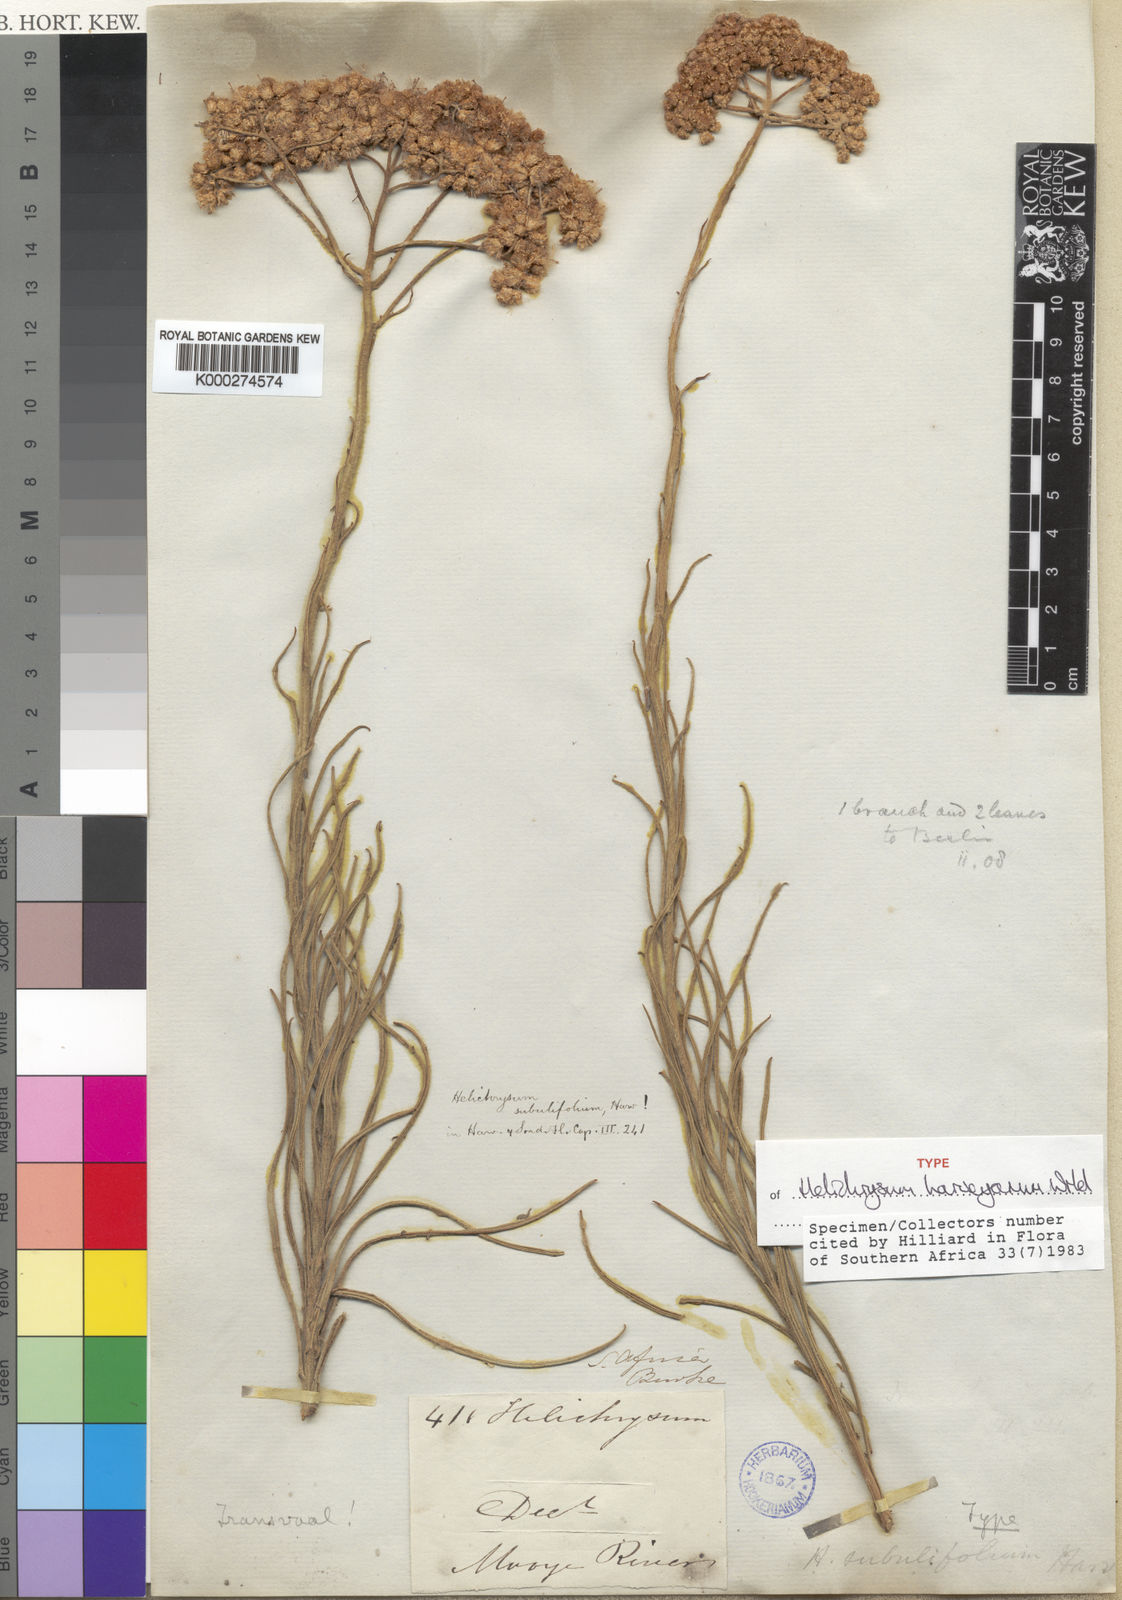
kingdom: Plantae
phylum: Tracheophyta
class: Magnoliopsida
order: Asterales
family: Asteraceae
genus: Helichrysum
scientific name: Helichrysum harveyanum
